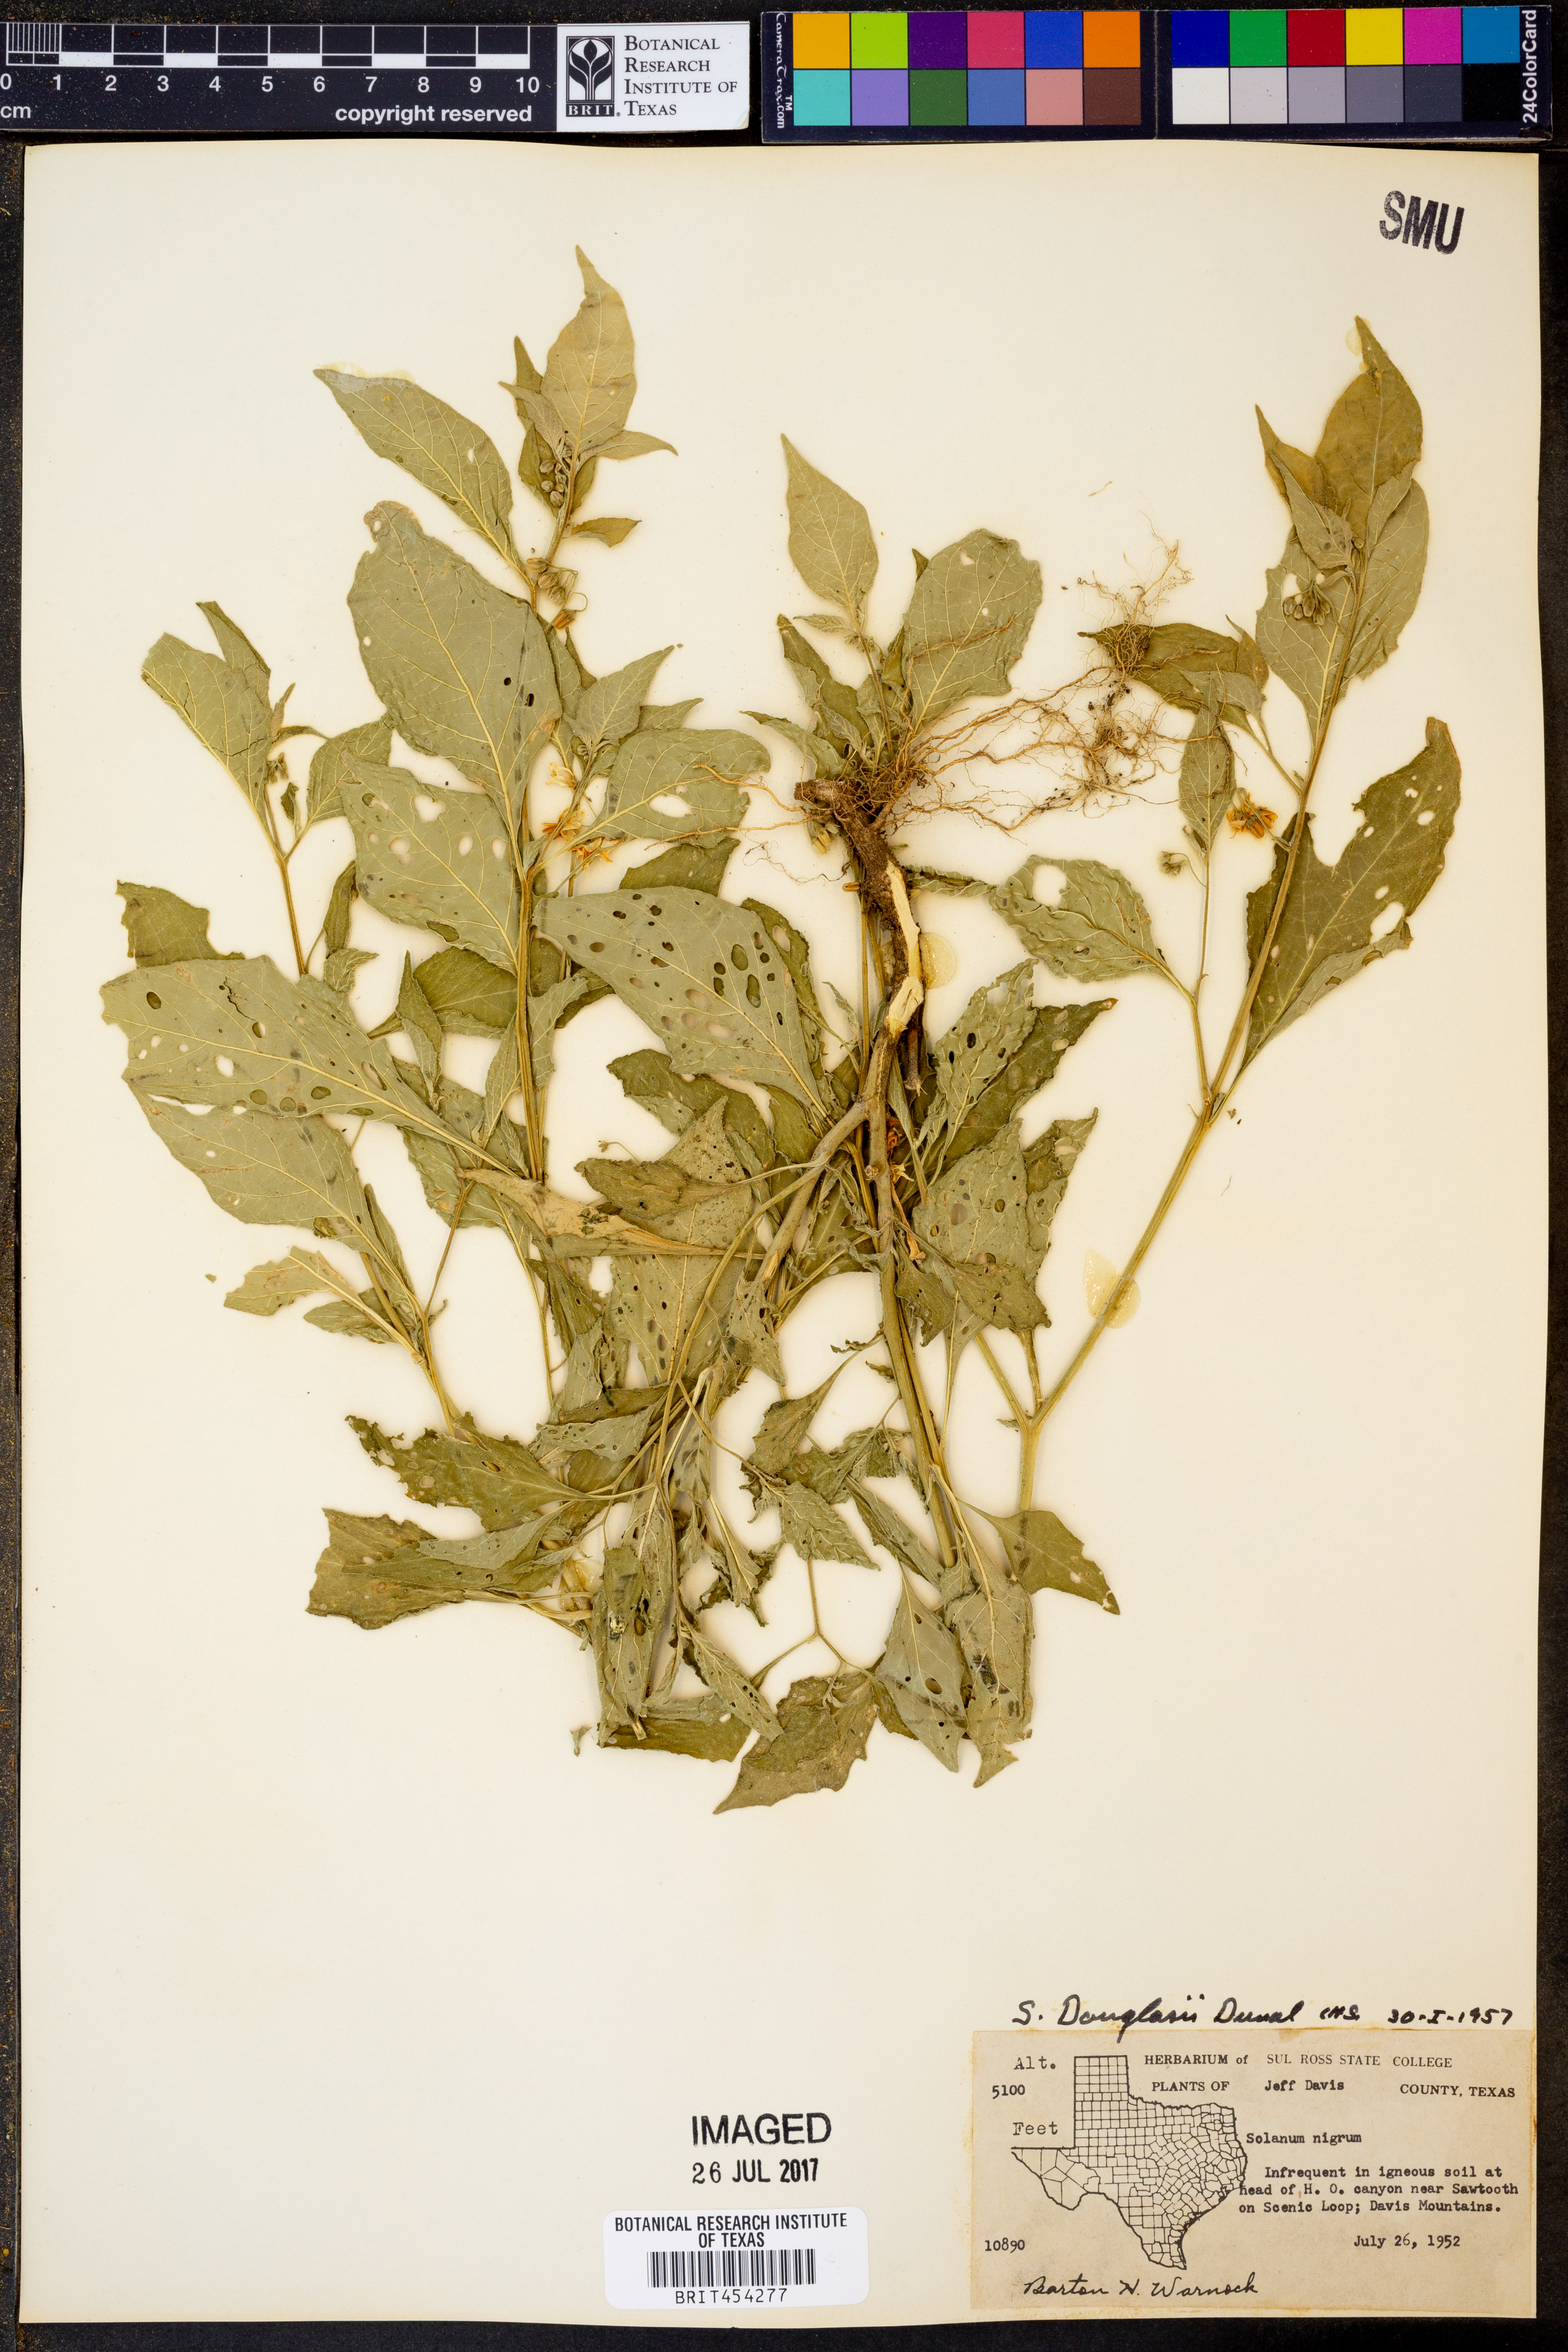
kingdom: Plantae
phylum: Tracheophyta
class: Magnoliopsida
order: Solanales
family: Solanaceae
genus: Solanum
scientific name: Solanum douglasii
